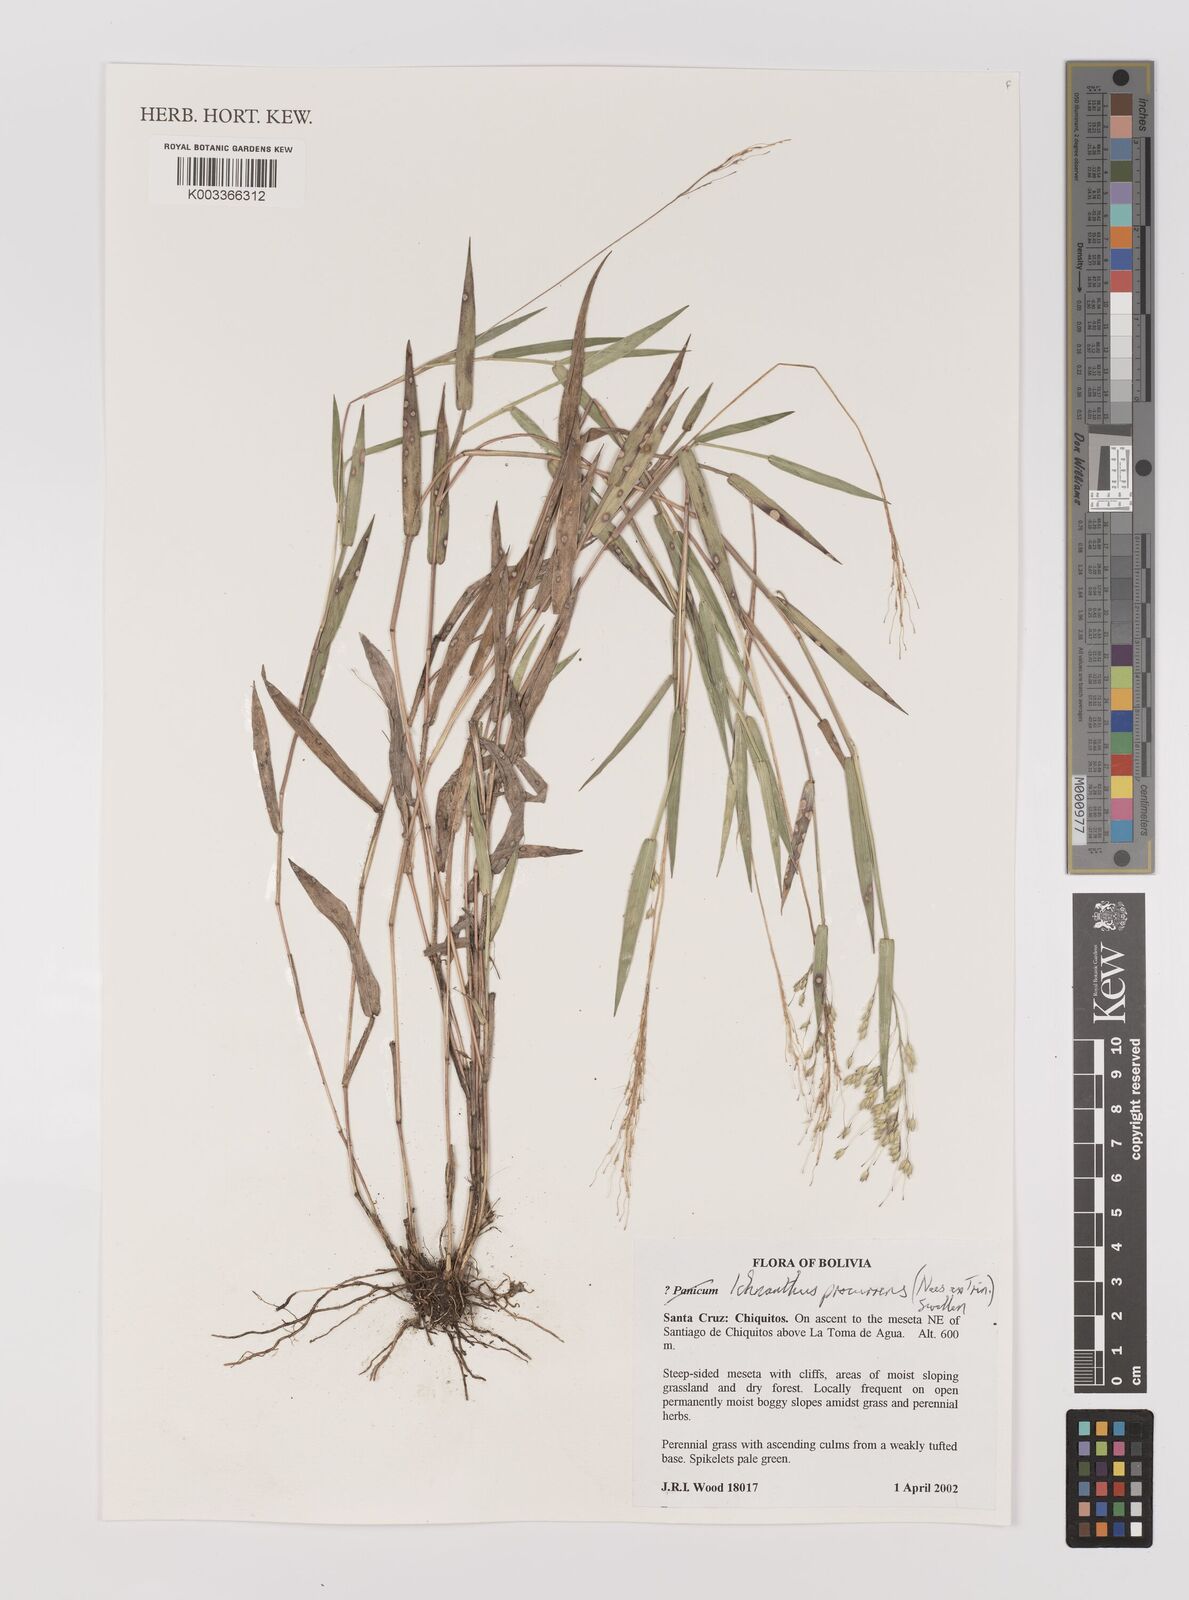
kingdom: Plantae
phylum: Tracheophyta
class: Liliopsida
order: Poales
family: Poaceae
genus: Oedochloa
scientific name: Oedochloa procurrens
